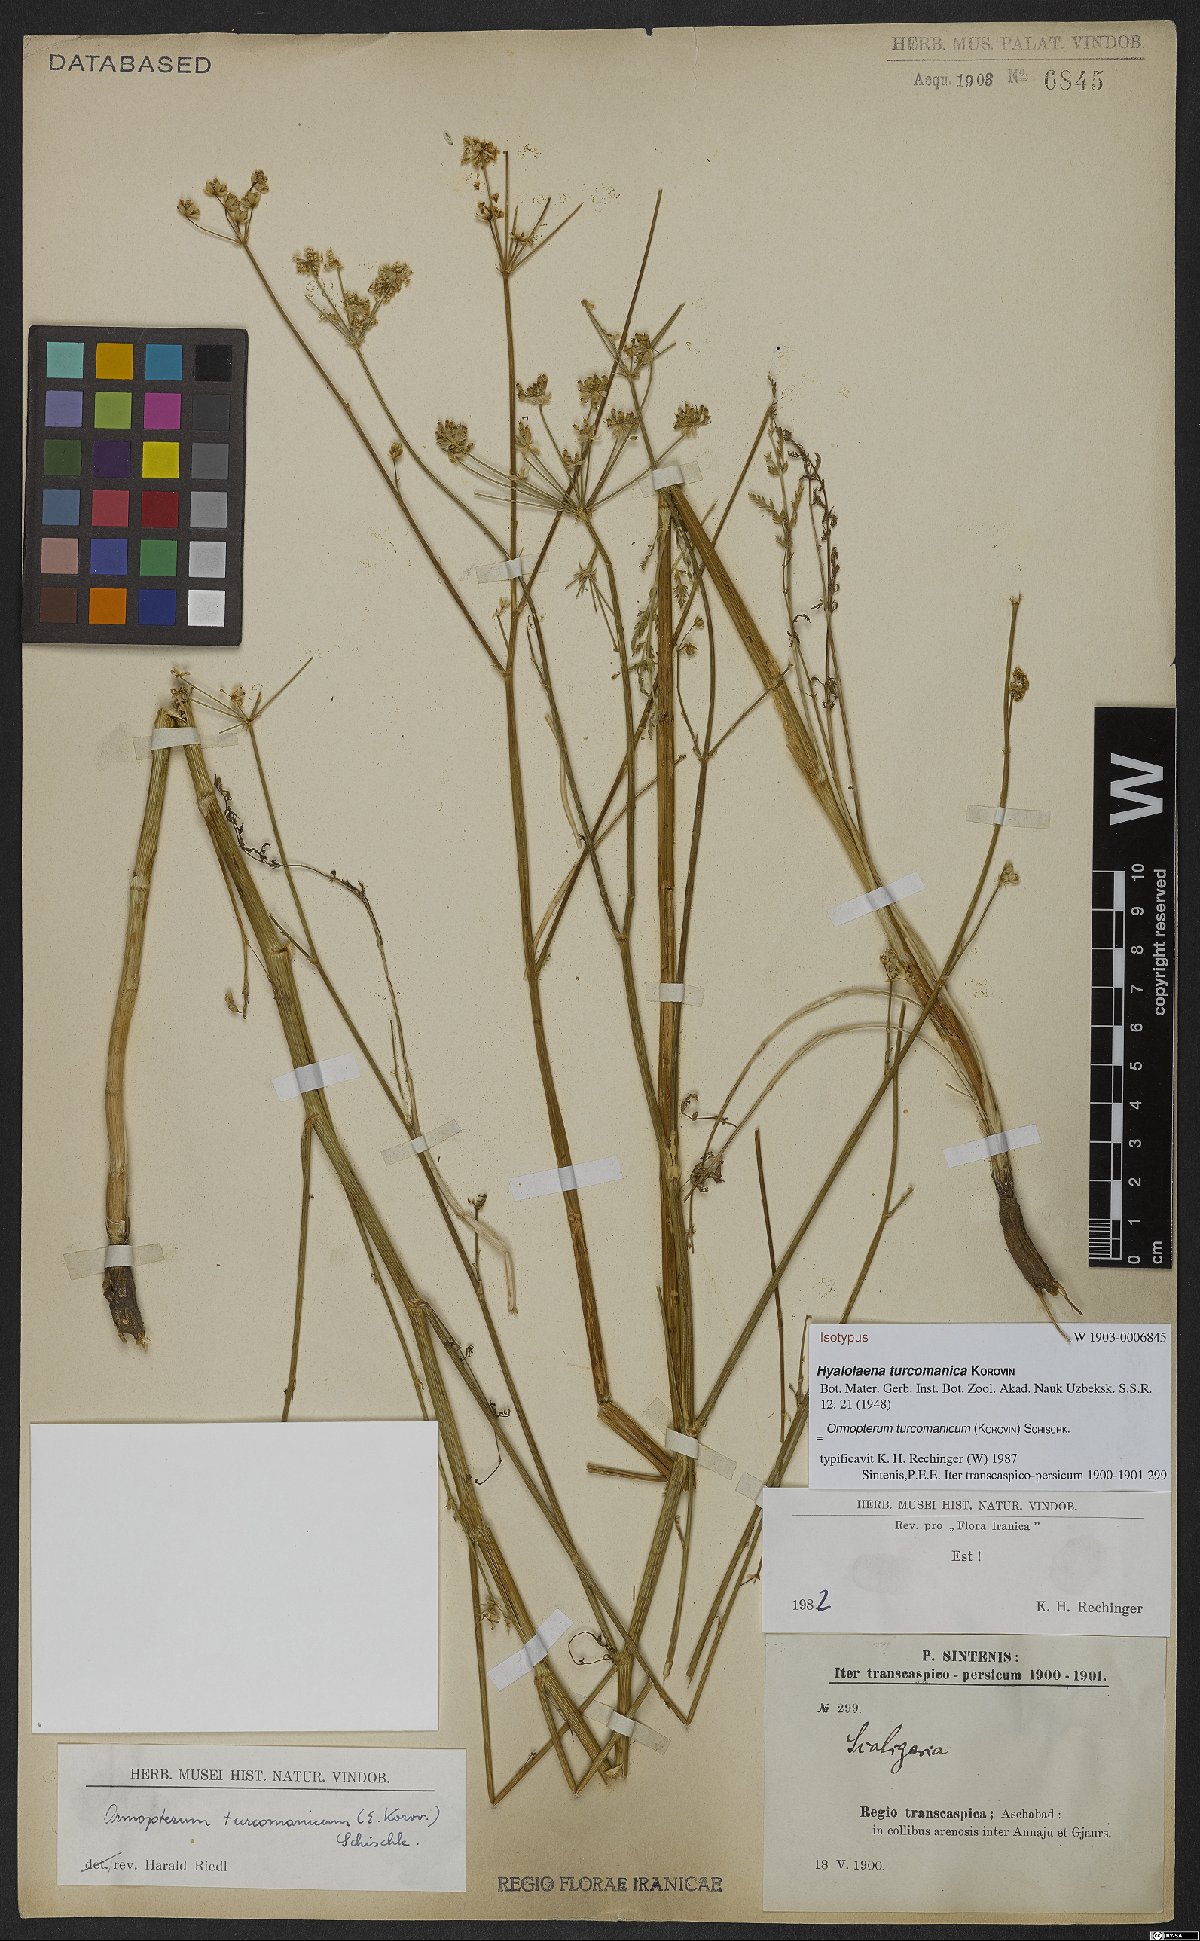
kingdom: Plantae
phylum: Tracheophyta
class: Magnoliopsida
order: Apiales
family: Apiaceae
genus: Ormopterum
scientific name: Ormopterum turcomanicum
